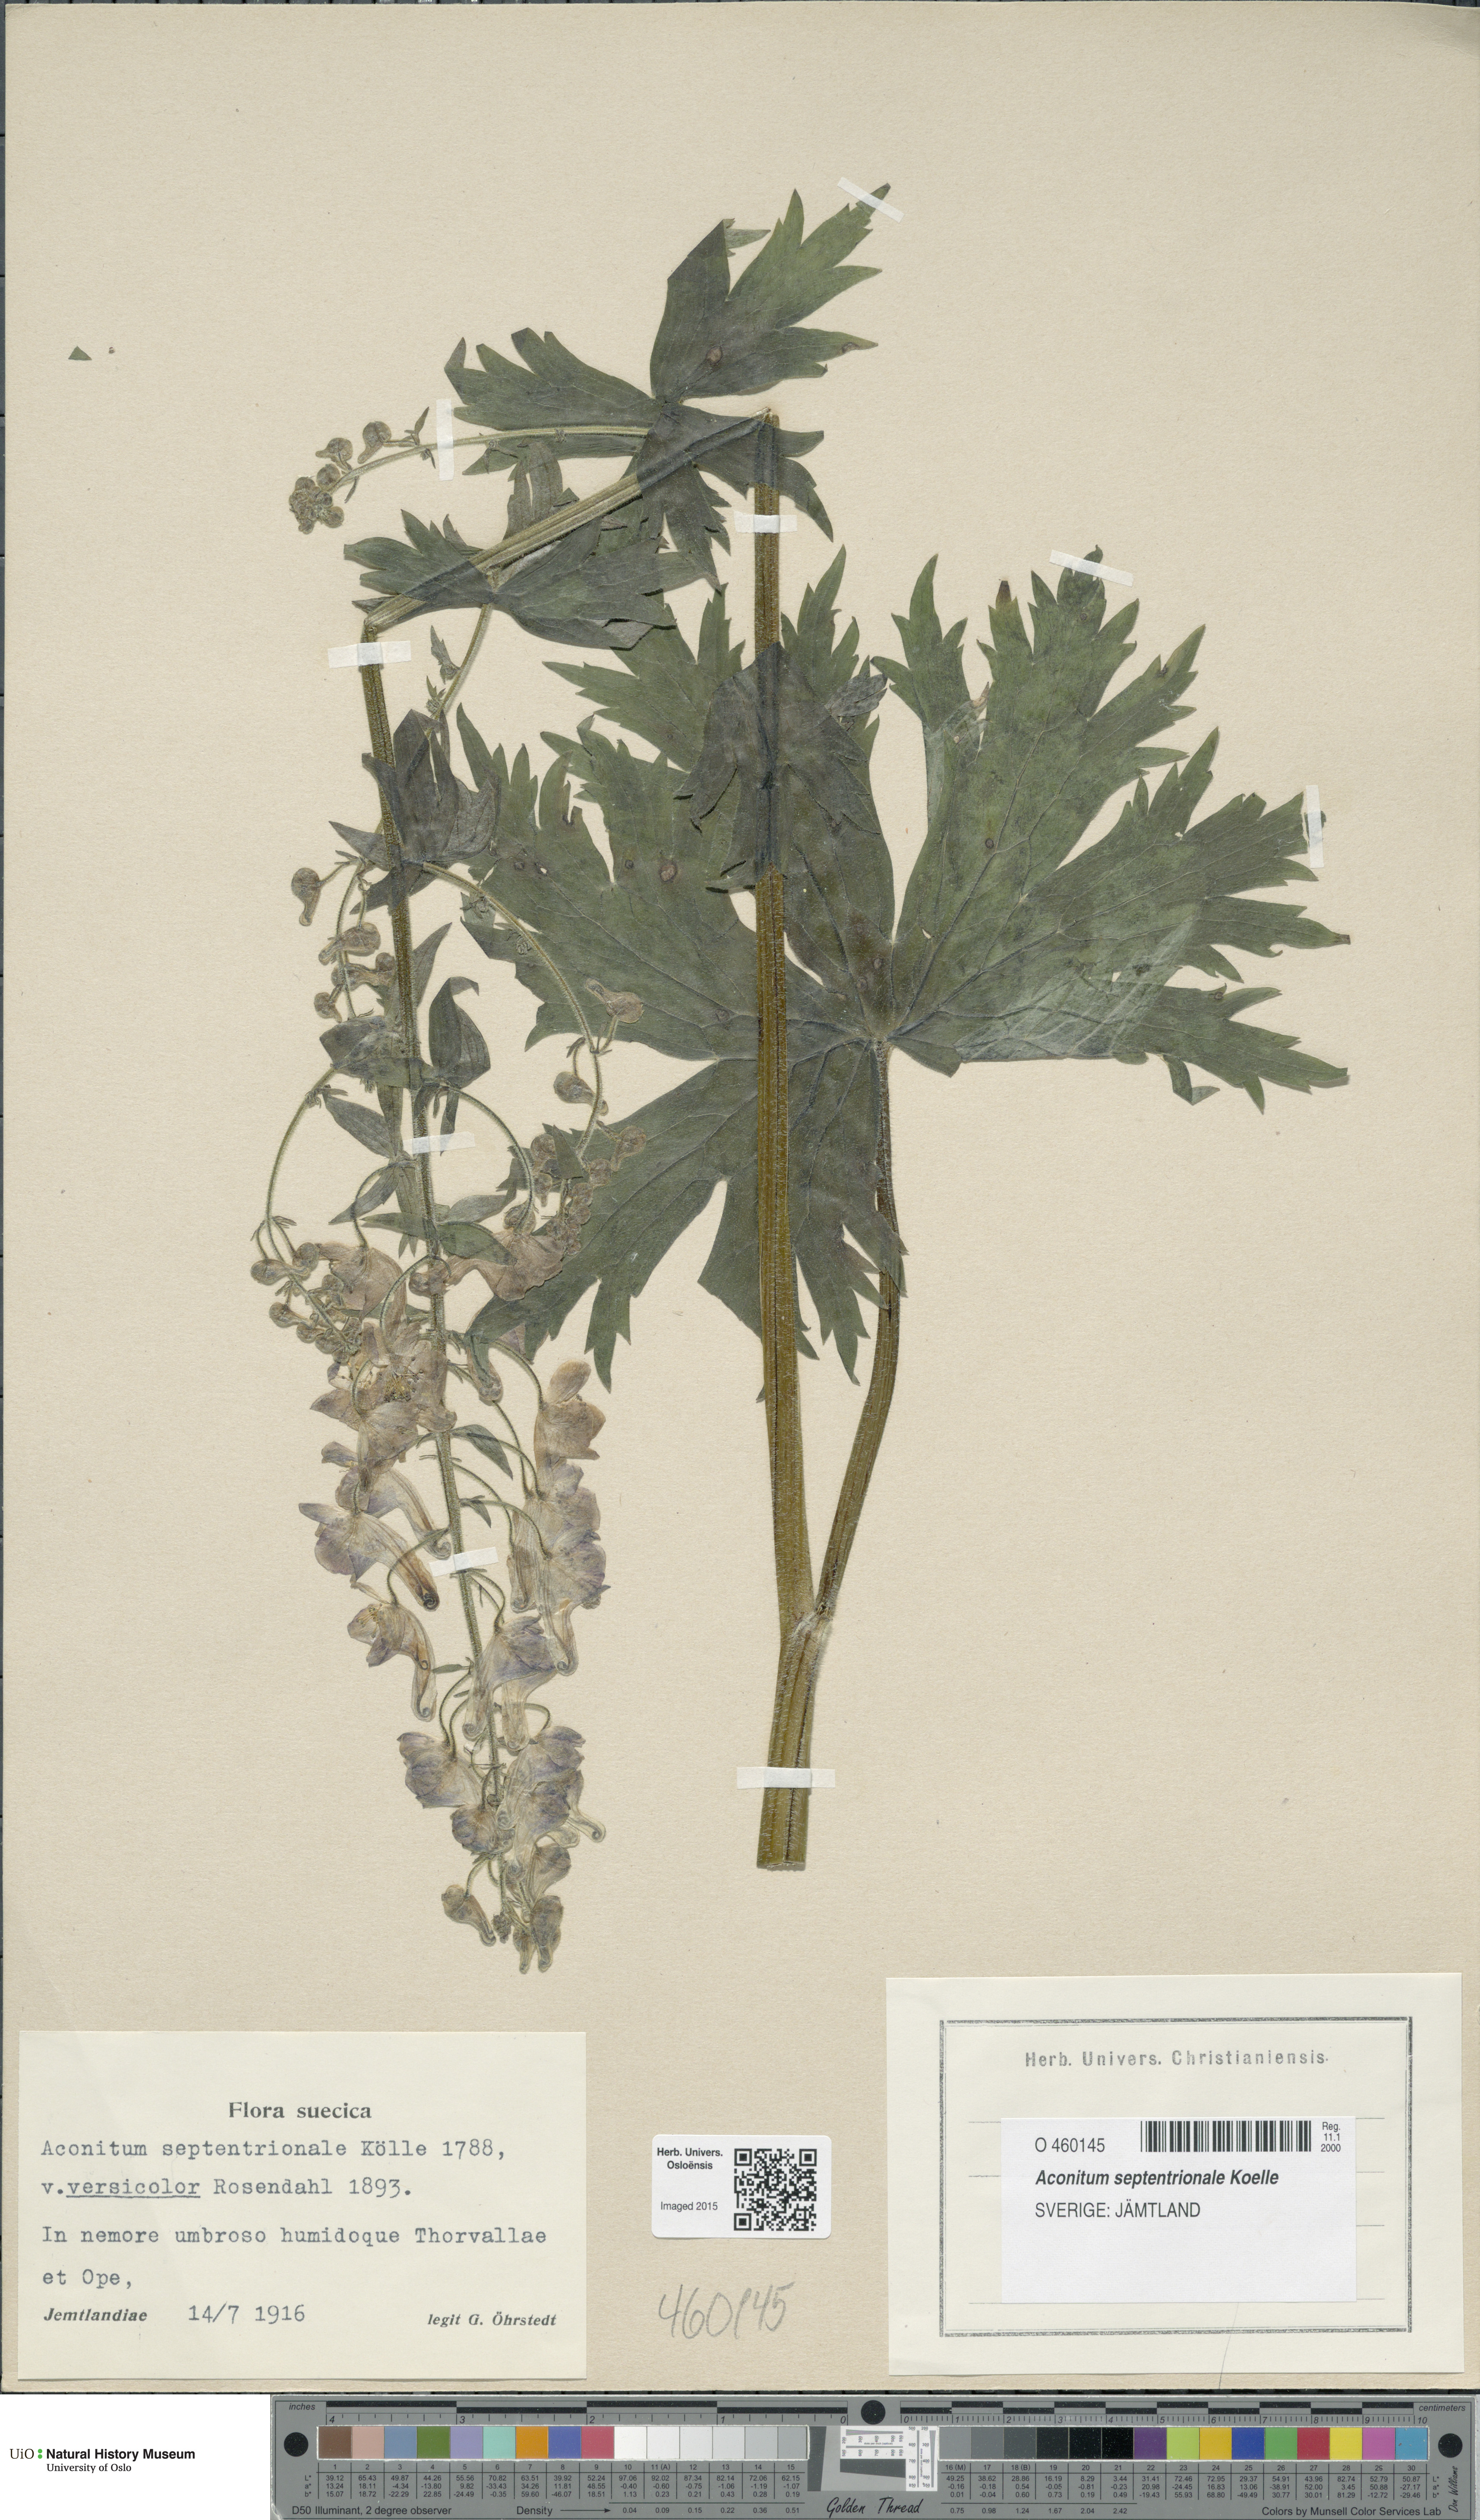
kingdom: Plantae
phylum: Tracheophyta
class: Magnoliopsida
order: Ranunculales
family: Ranunculaceae
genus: Aconitum
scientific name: Aconitum septentrionale
